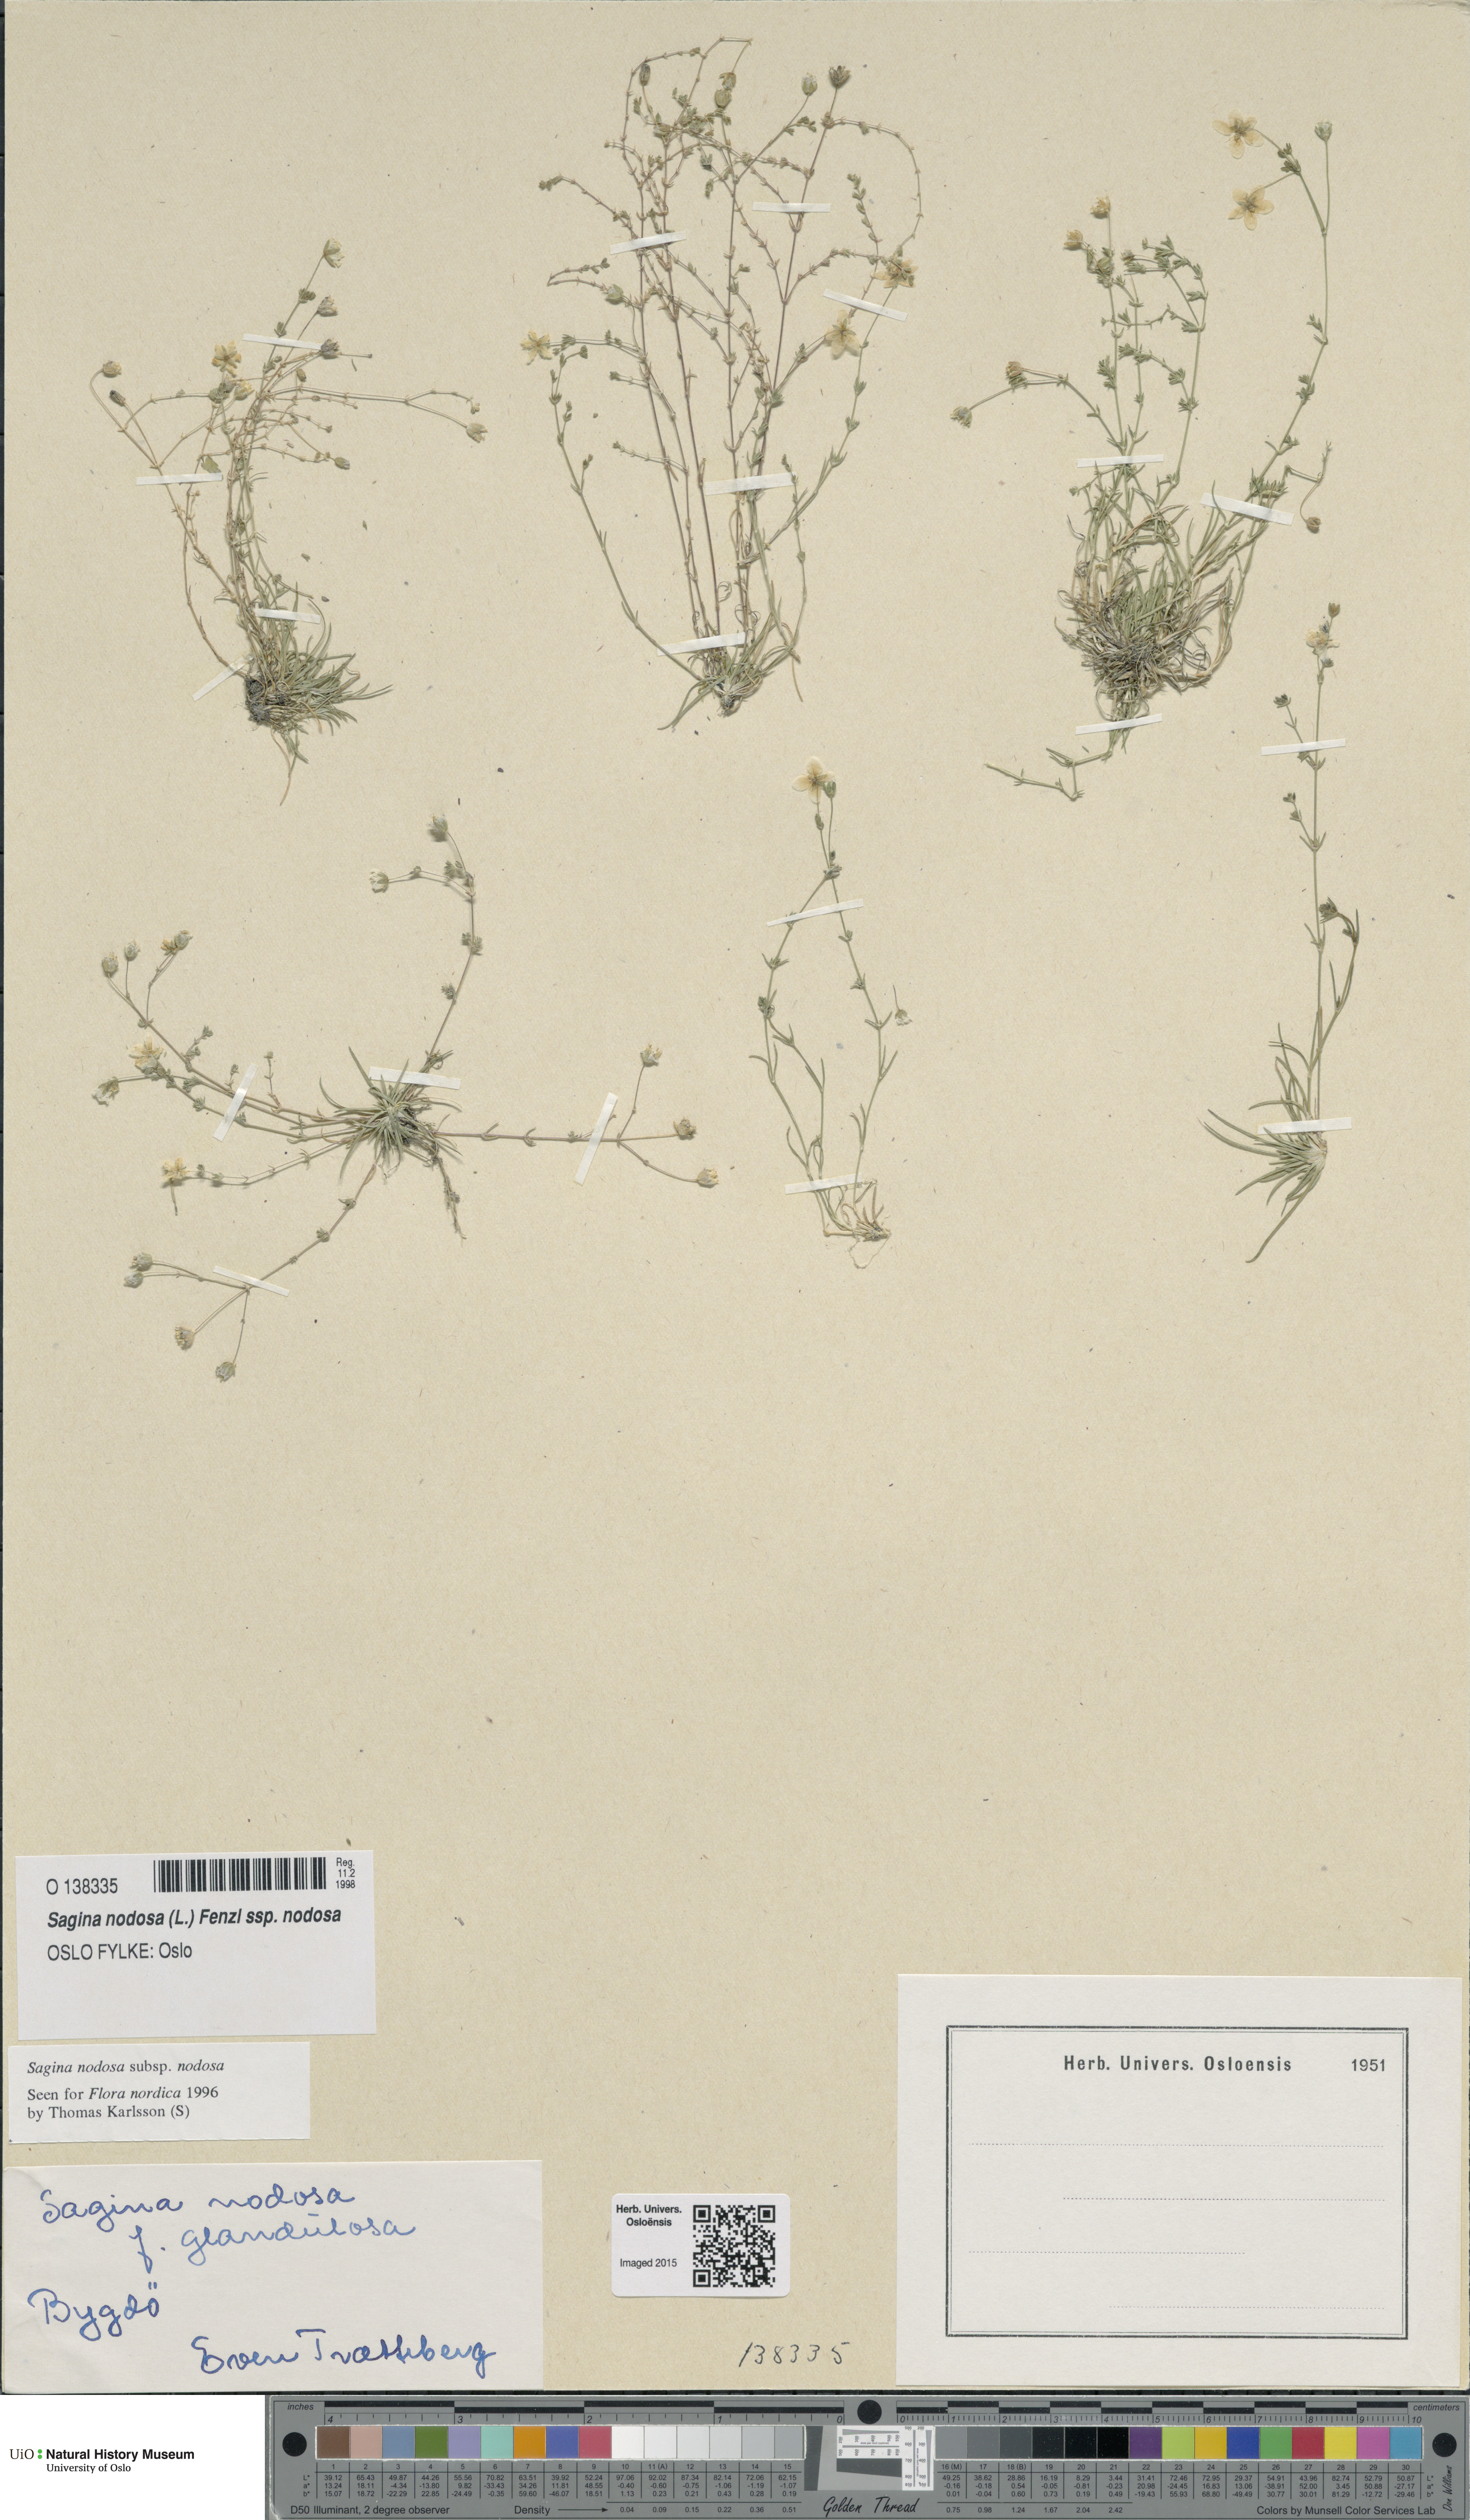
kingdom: Plantae
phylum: Tracheophyta
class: Magnoliopsida
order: Caryophyllales
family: Caryophyllaceae
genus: Sagina
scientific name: Sagina nodosa
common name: Knotted pearlwort
